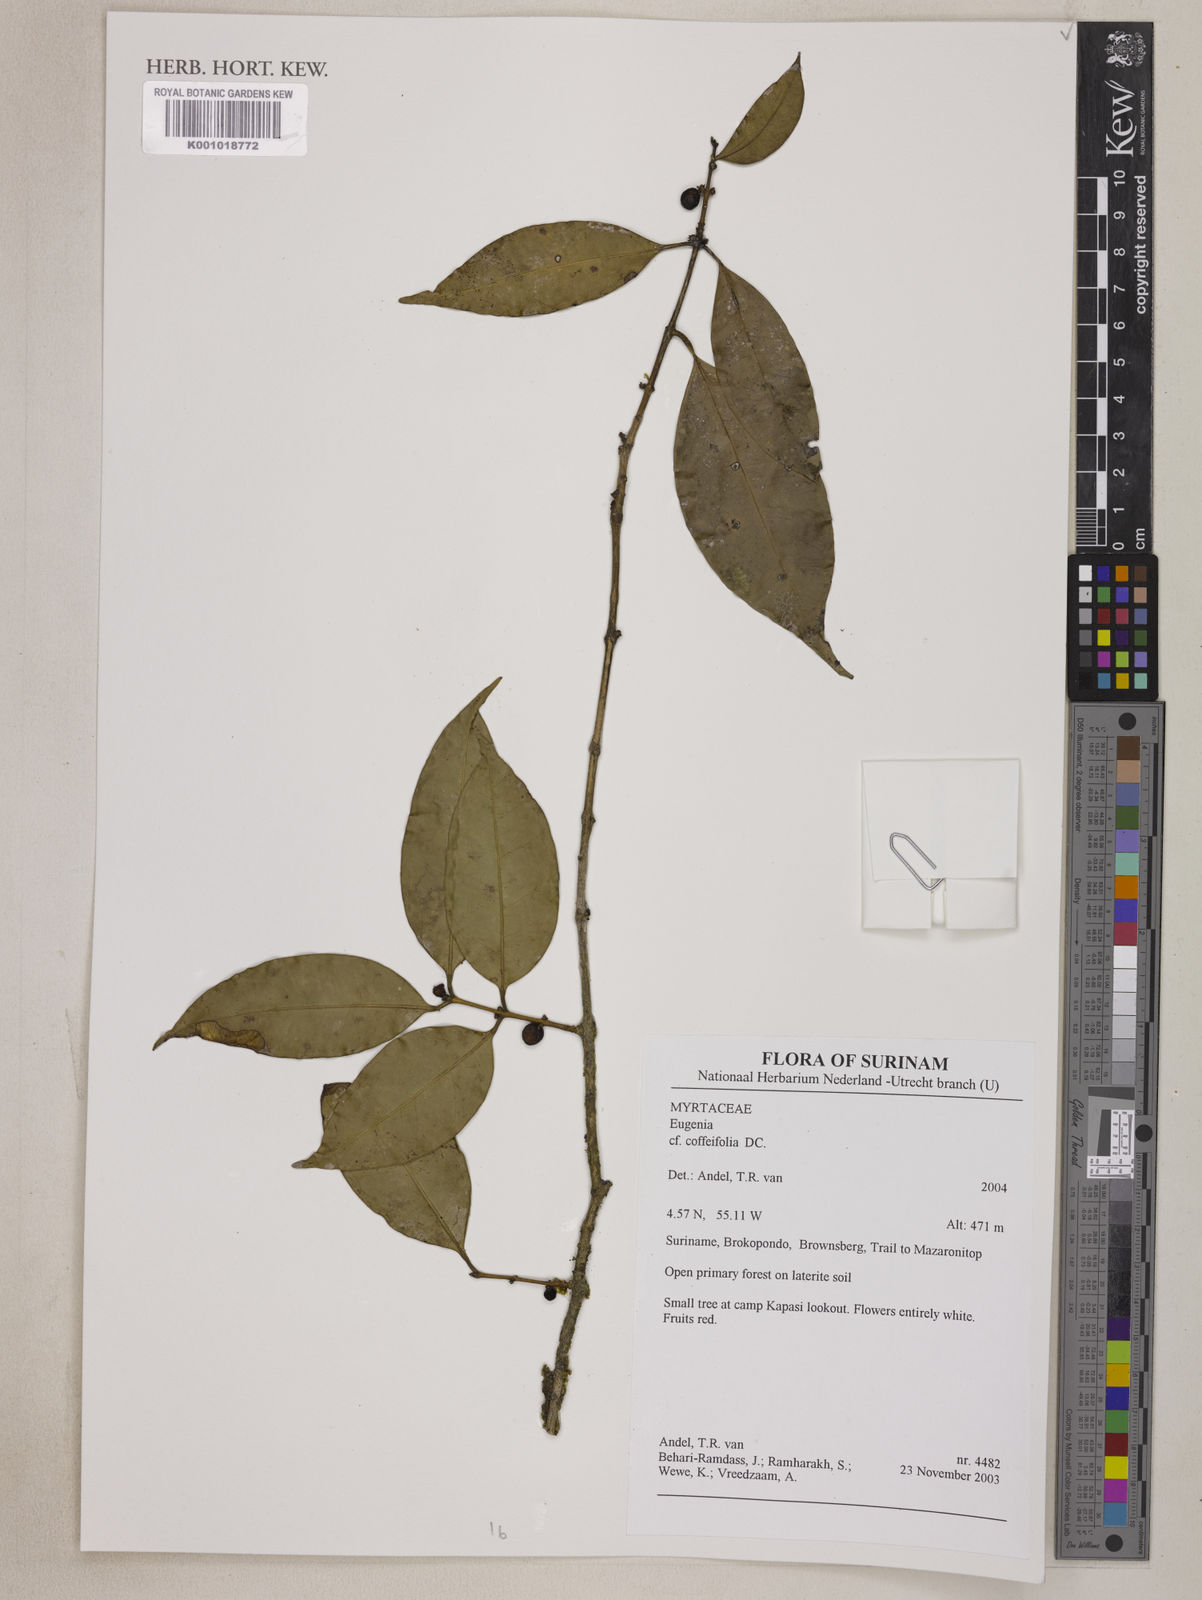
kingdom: Plantae
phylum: Tracheophyta
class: Magnoliopsida
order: Myrtales
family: Myrtaceae
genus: Eugenia
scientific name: Eugenia coffeifolia
